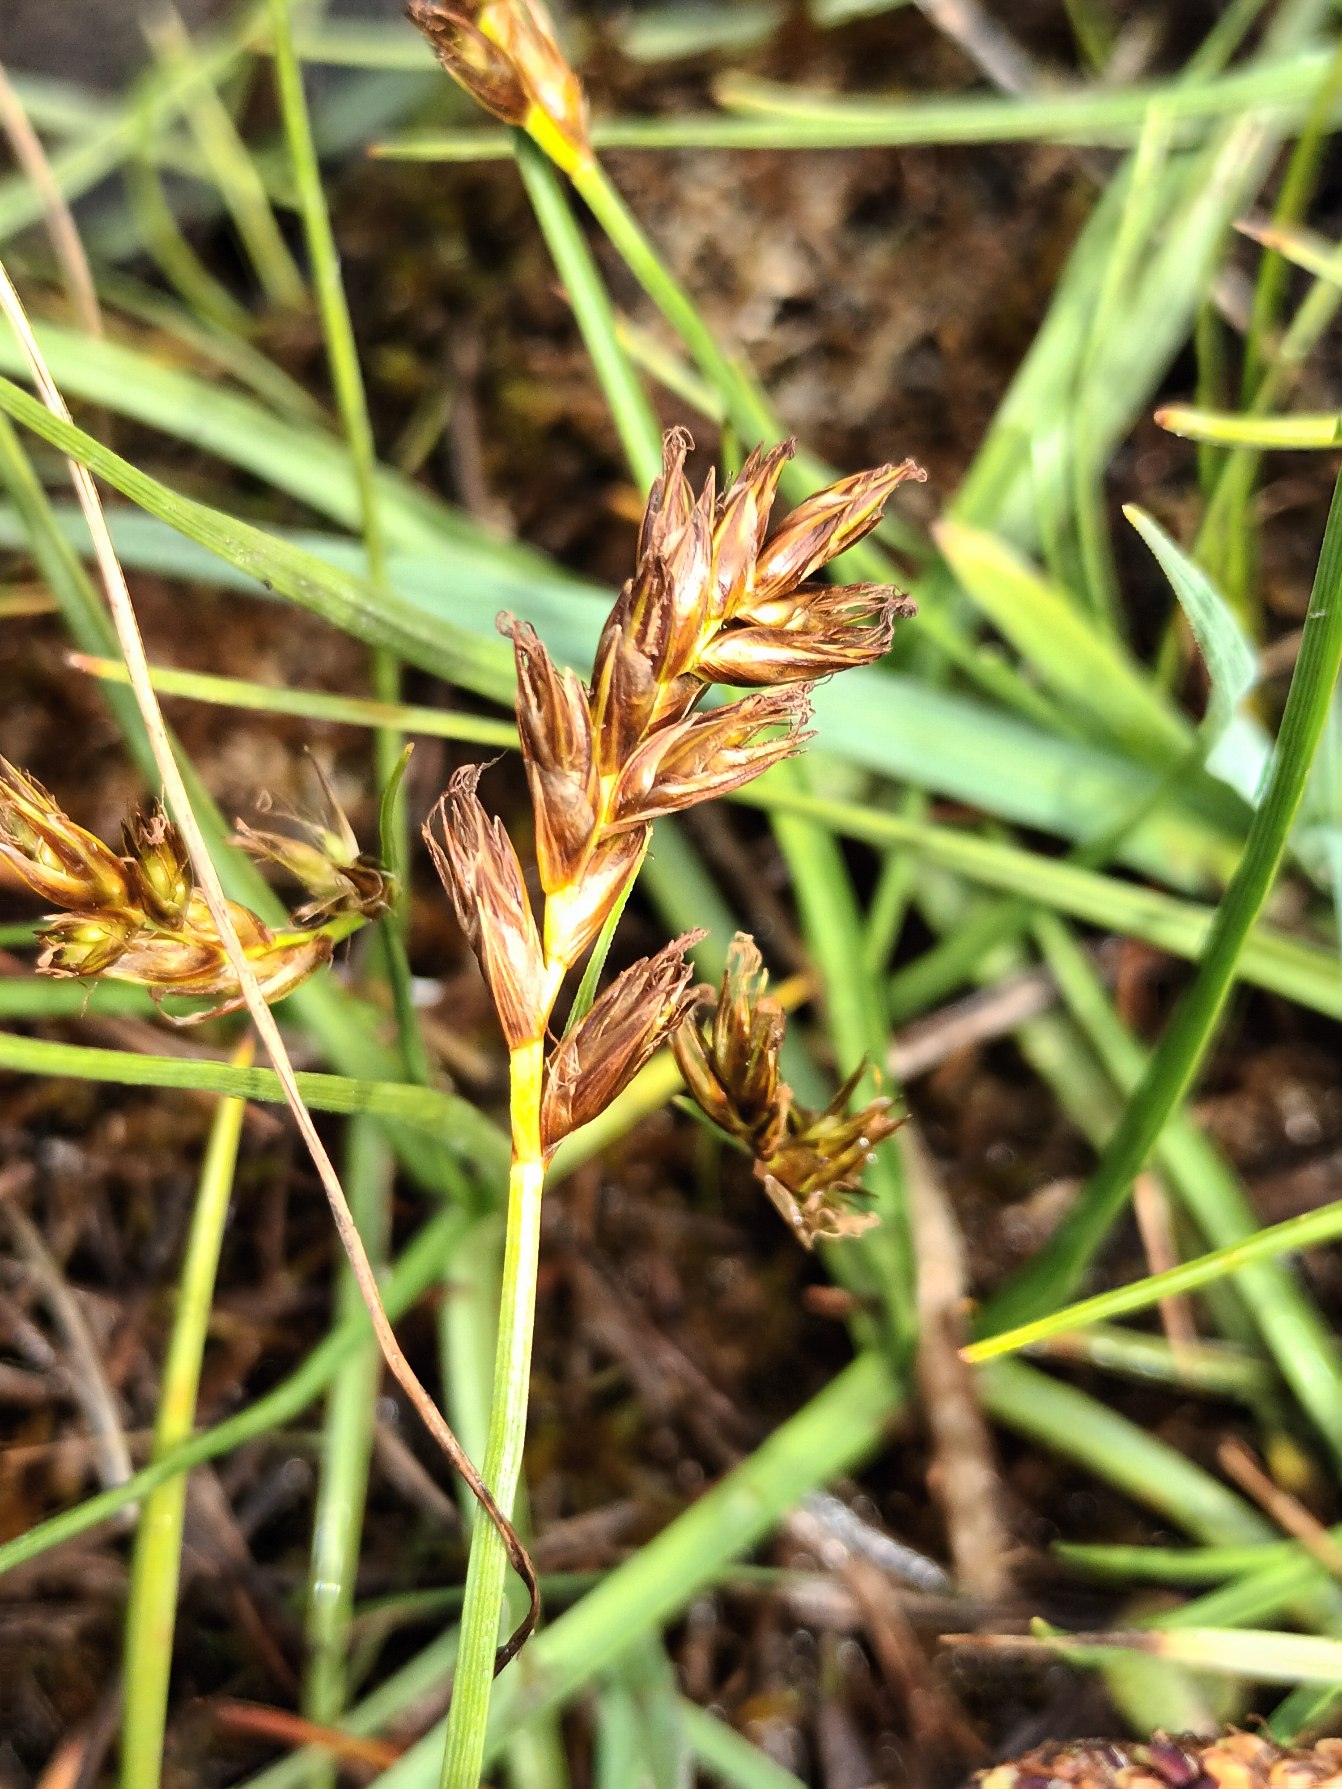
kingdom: Plantae
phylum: Tracheophyta
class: Liliopsida
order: Poales
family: Cyperaceae
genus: Blysmus
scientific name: Blysmus compressus
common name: Fladtrykt kogleaks
